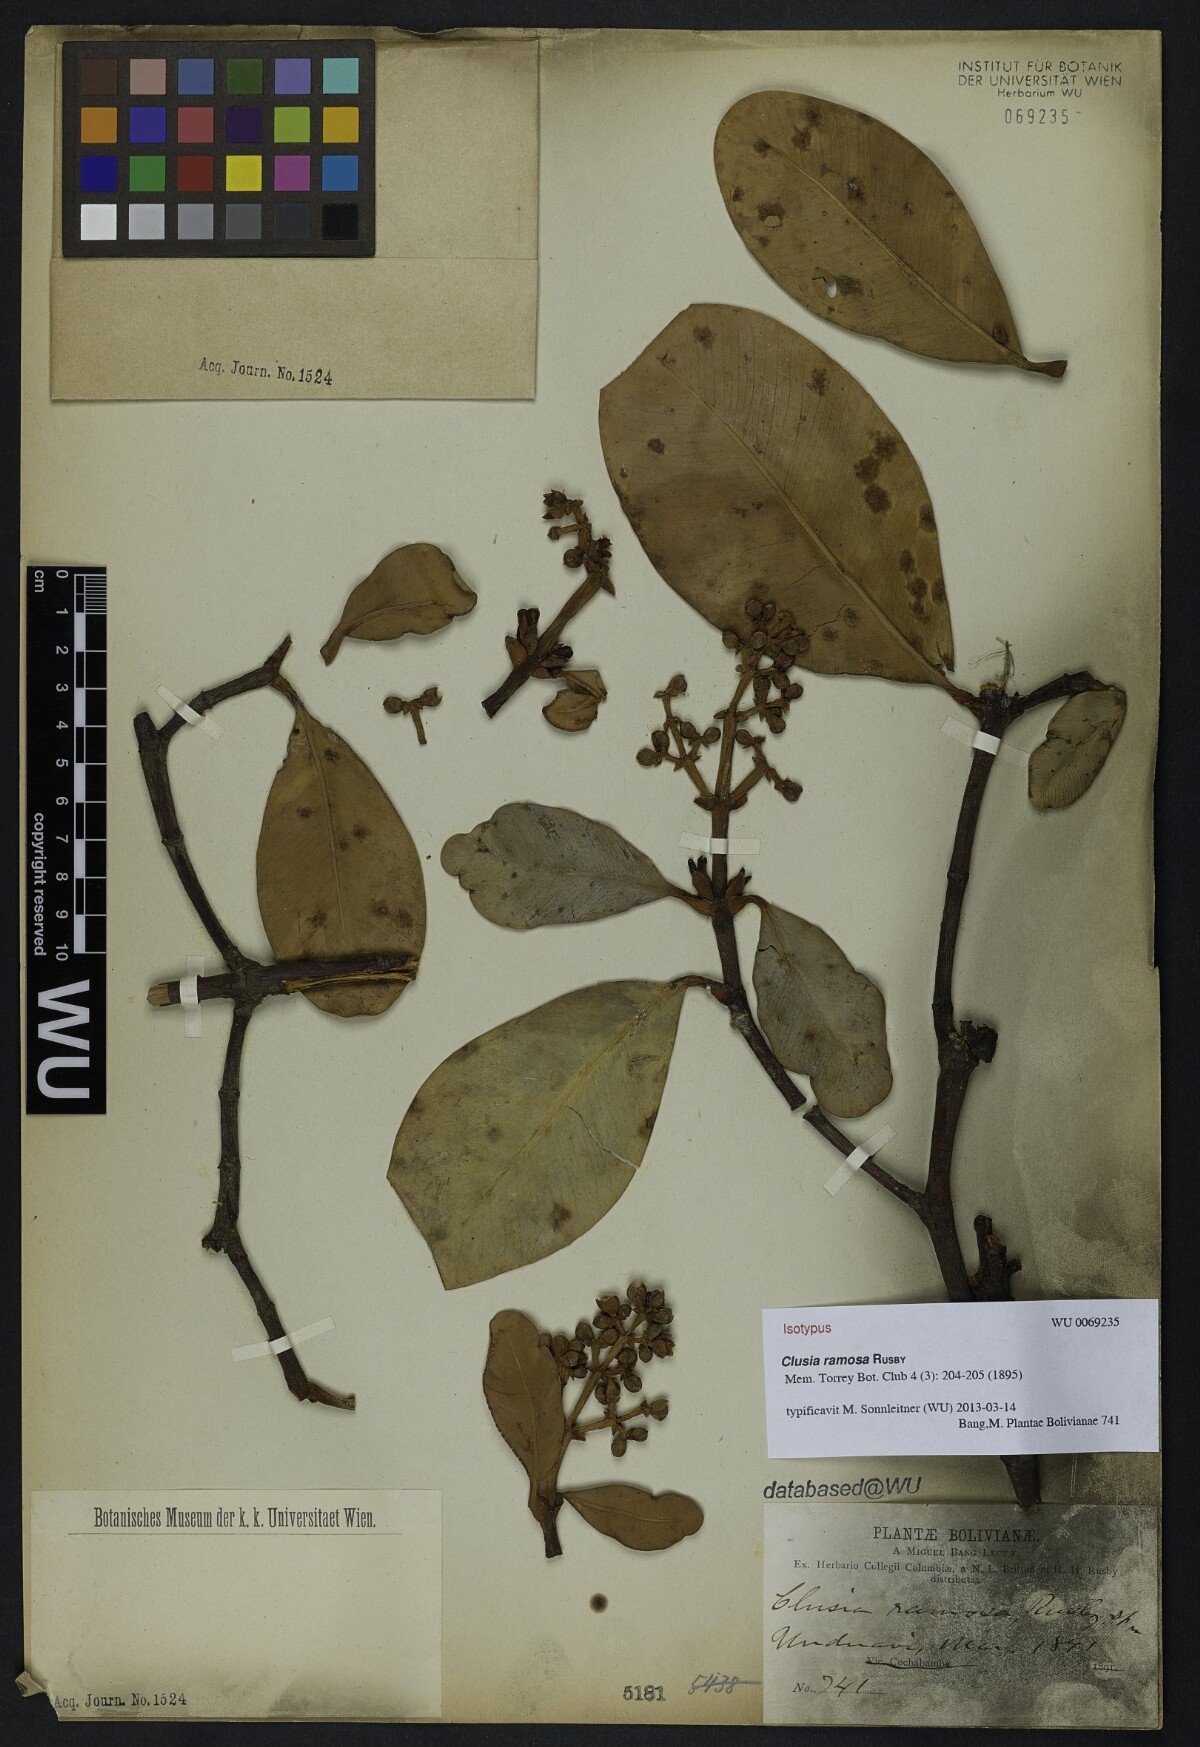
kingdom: Plantae
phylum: Tracheophyta
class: Magnoliopsida
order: Malpighiales
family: Clusiaceae
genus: Clusia
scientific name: Clusia ramosa
